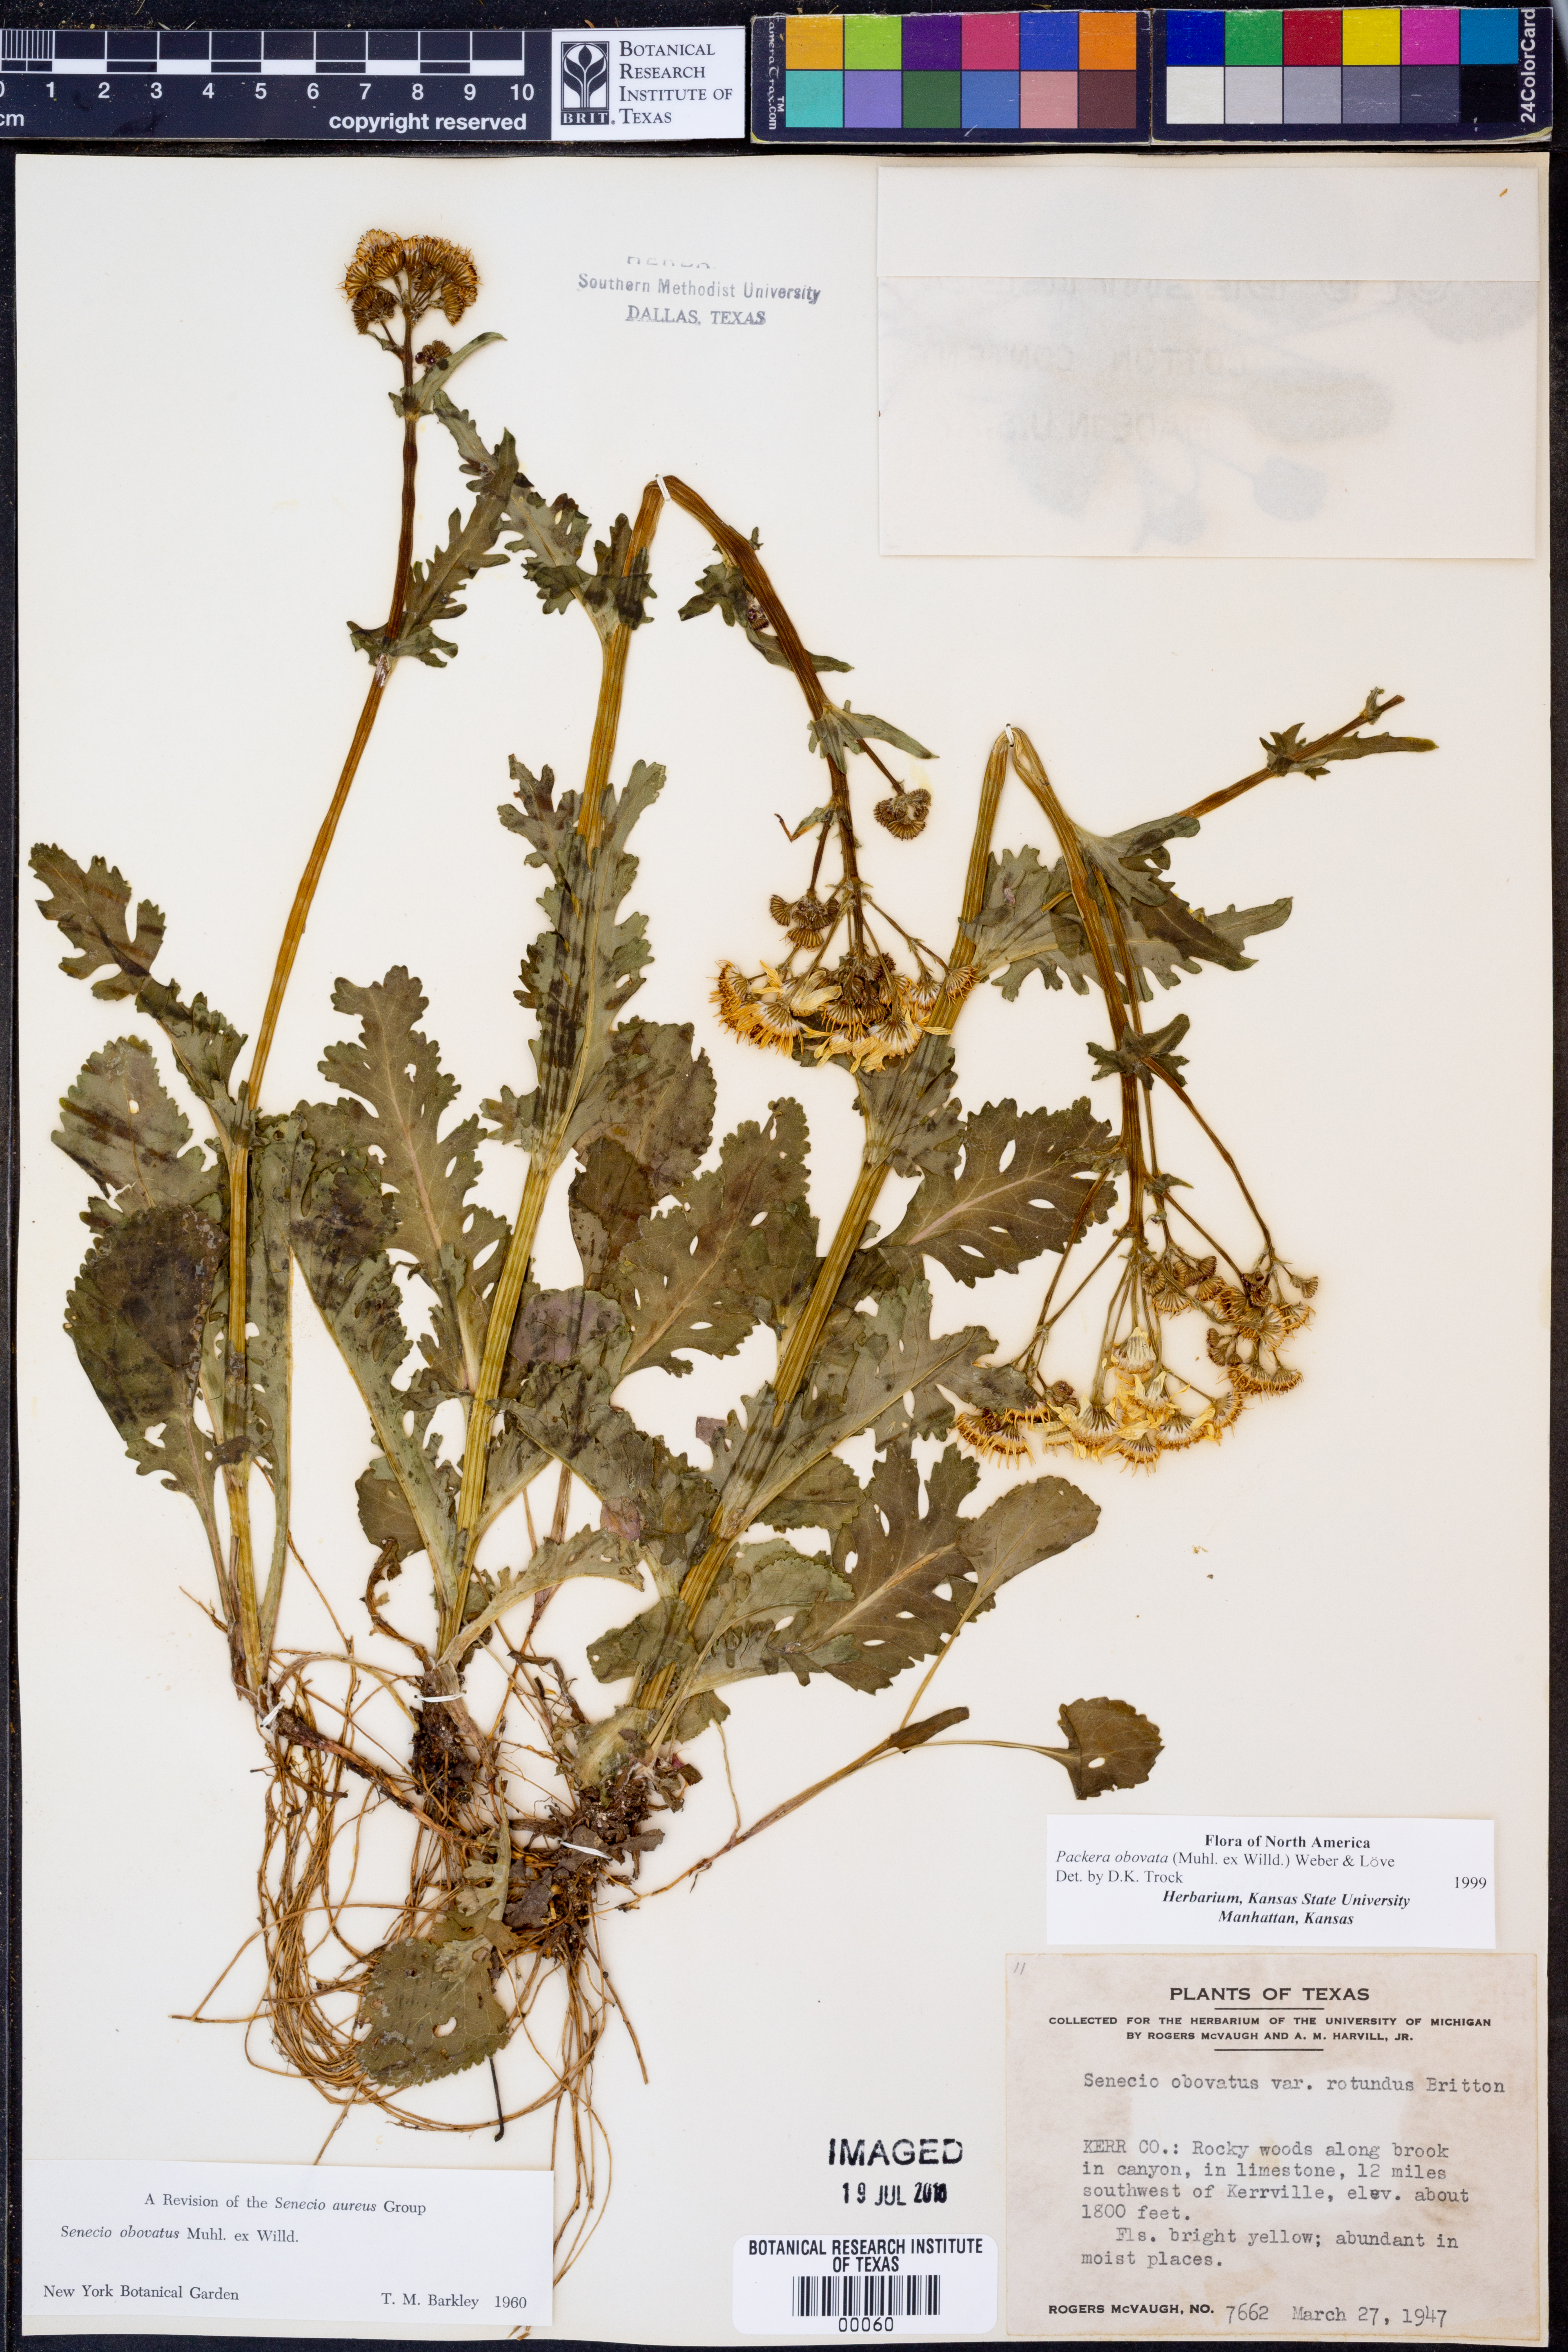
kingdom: Plantae
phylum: Tracheophyta
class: Magnoliopsida
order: Asterales
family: Asteraceae
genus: Packera
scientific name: Packera obovata
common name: Round-leaf ragwort
